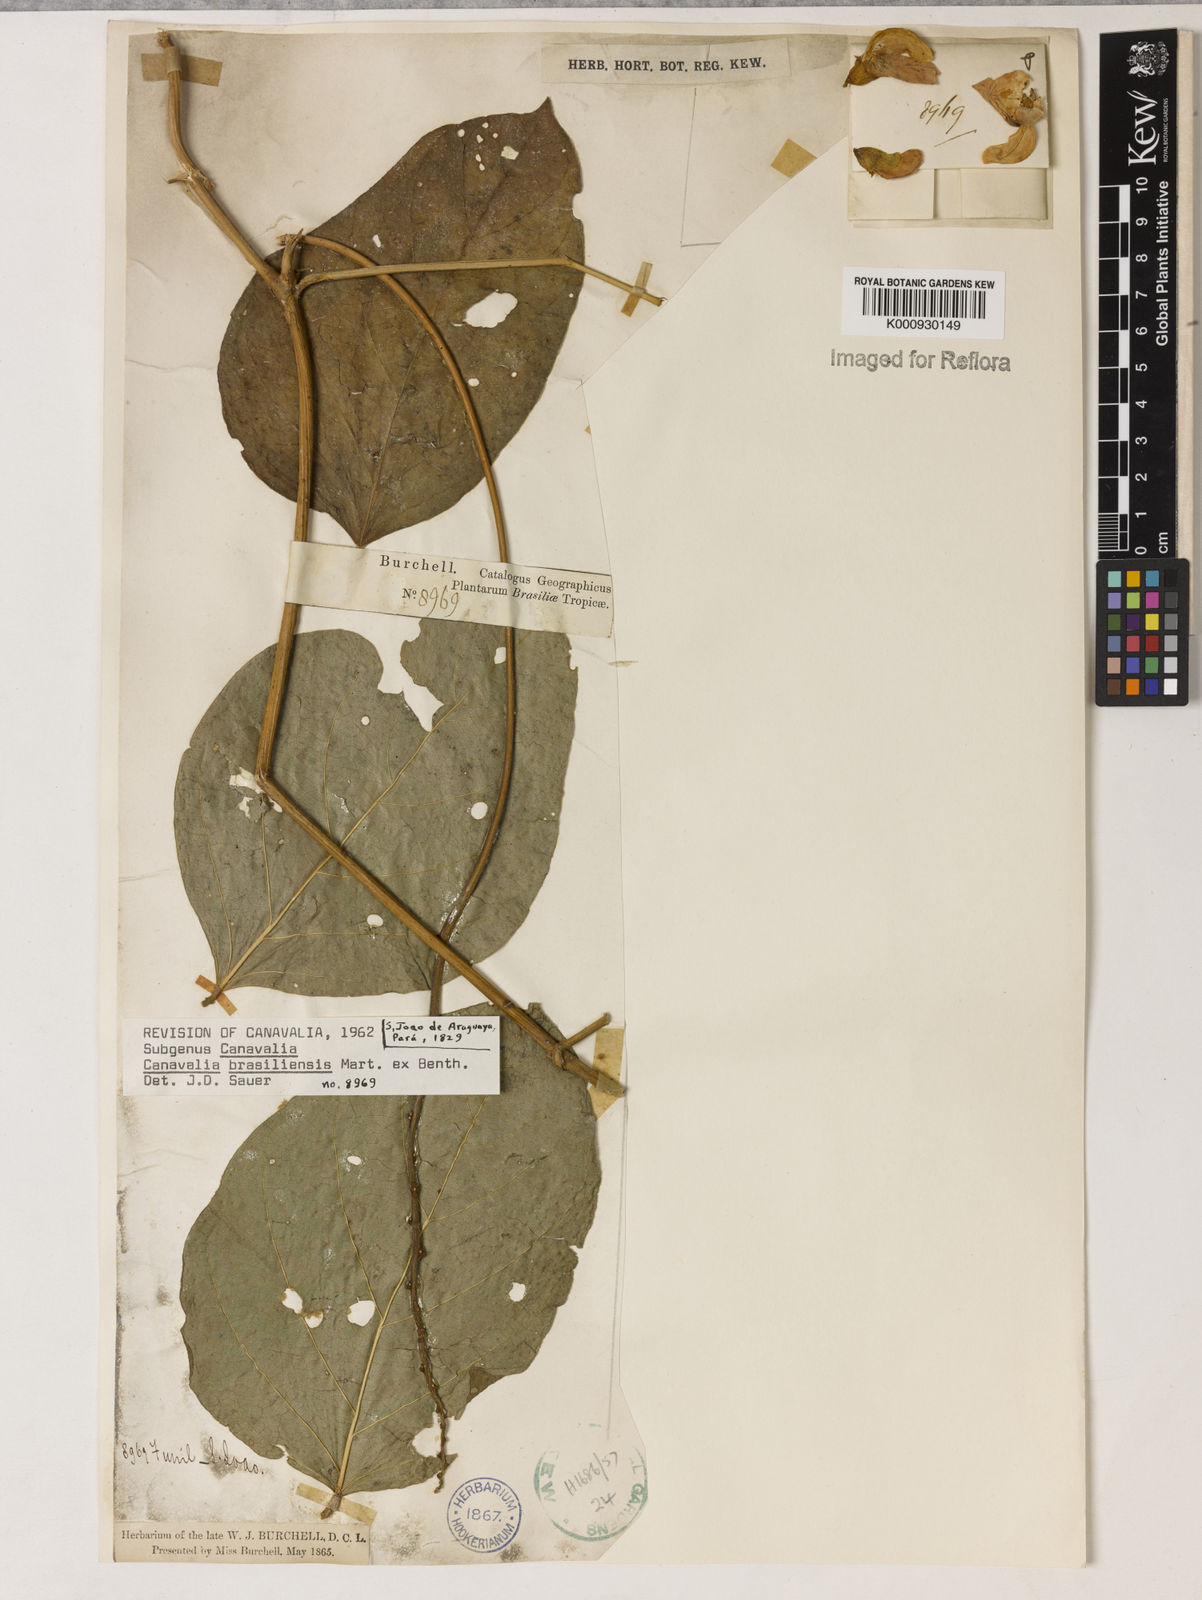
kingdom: Plantae
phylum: Tracheophyta
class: Magnoliopsida
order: Fabales
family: Fabaceae
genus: Canavalia
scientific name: Canavalia brasiliensis
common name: Barbicou-bean
